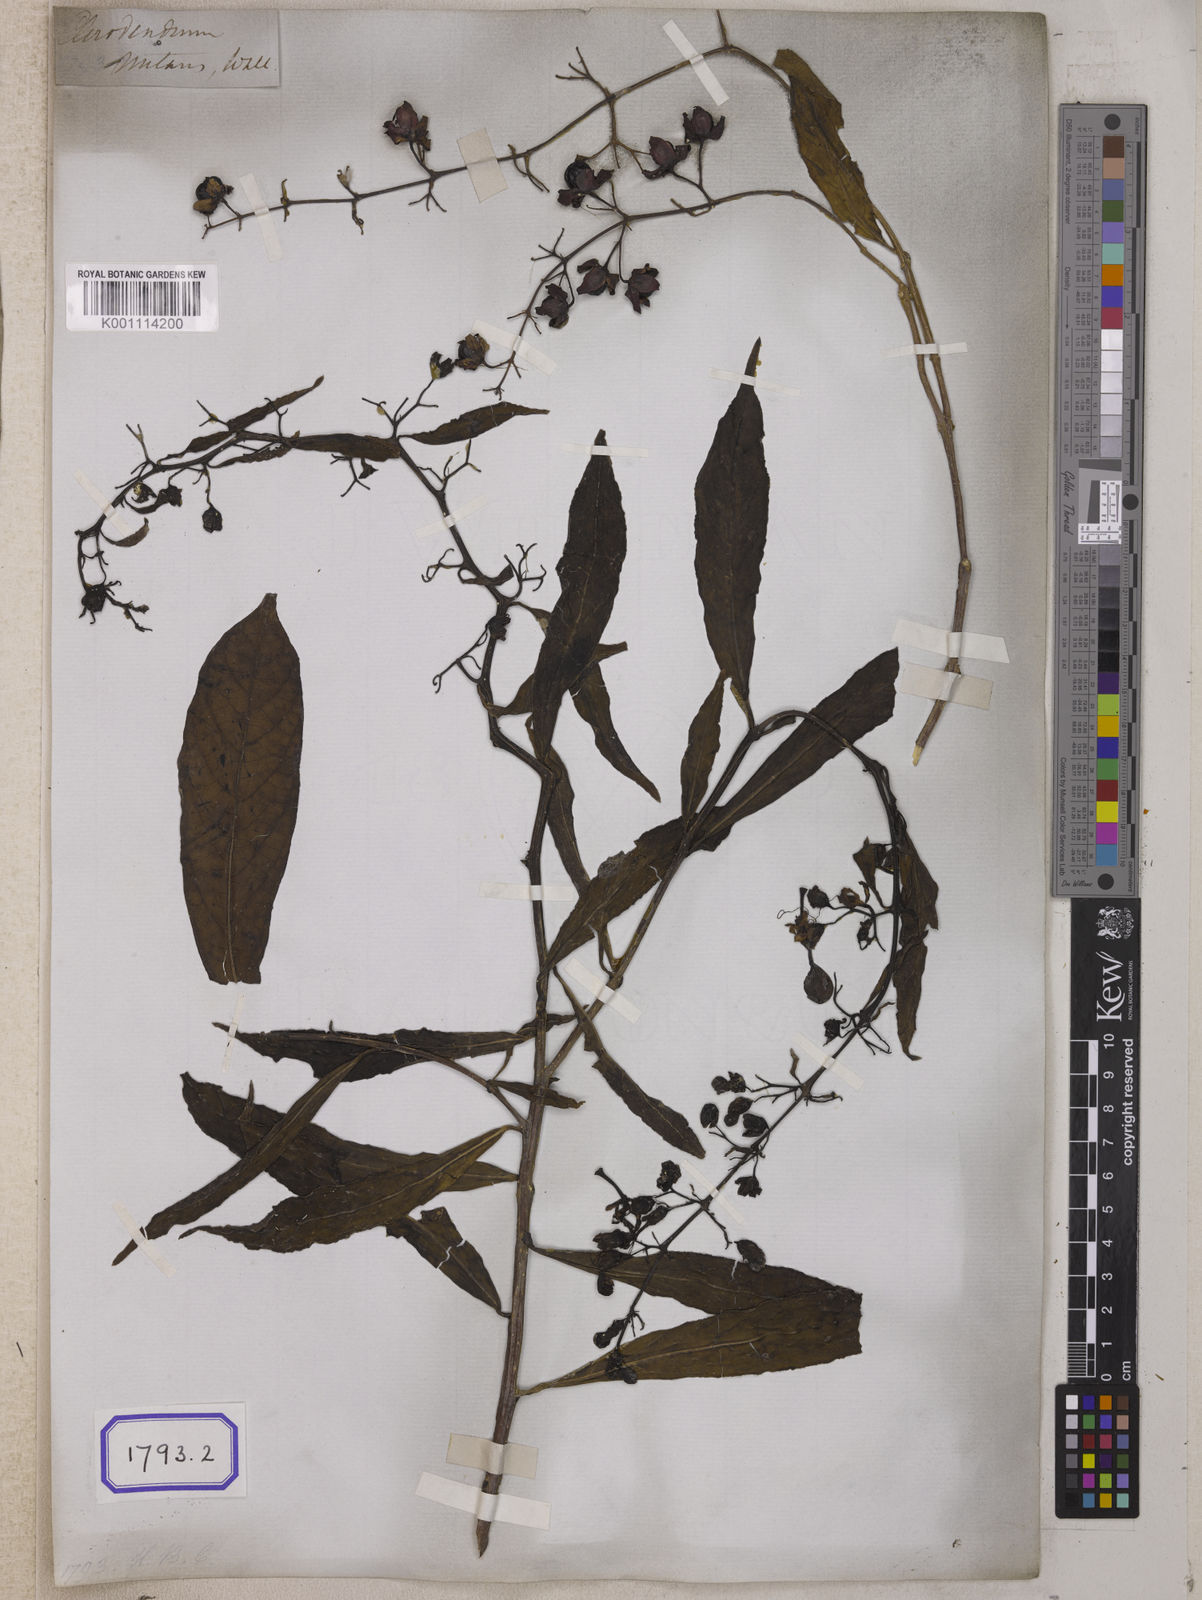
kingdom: Plantae
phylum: Tracheophyta
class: Magnoliopsida
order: Lamiales
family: Lamiaceae
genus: Clerodendrum
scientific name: Clerodendrum
